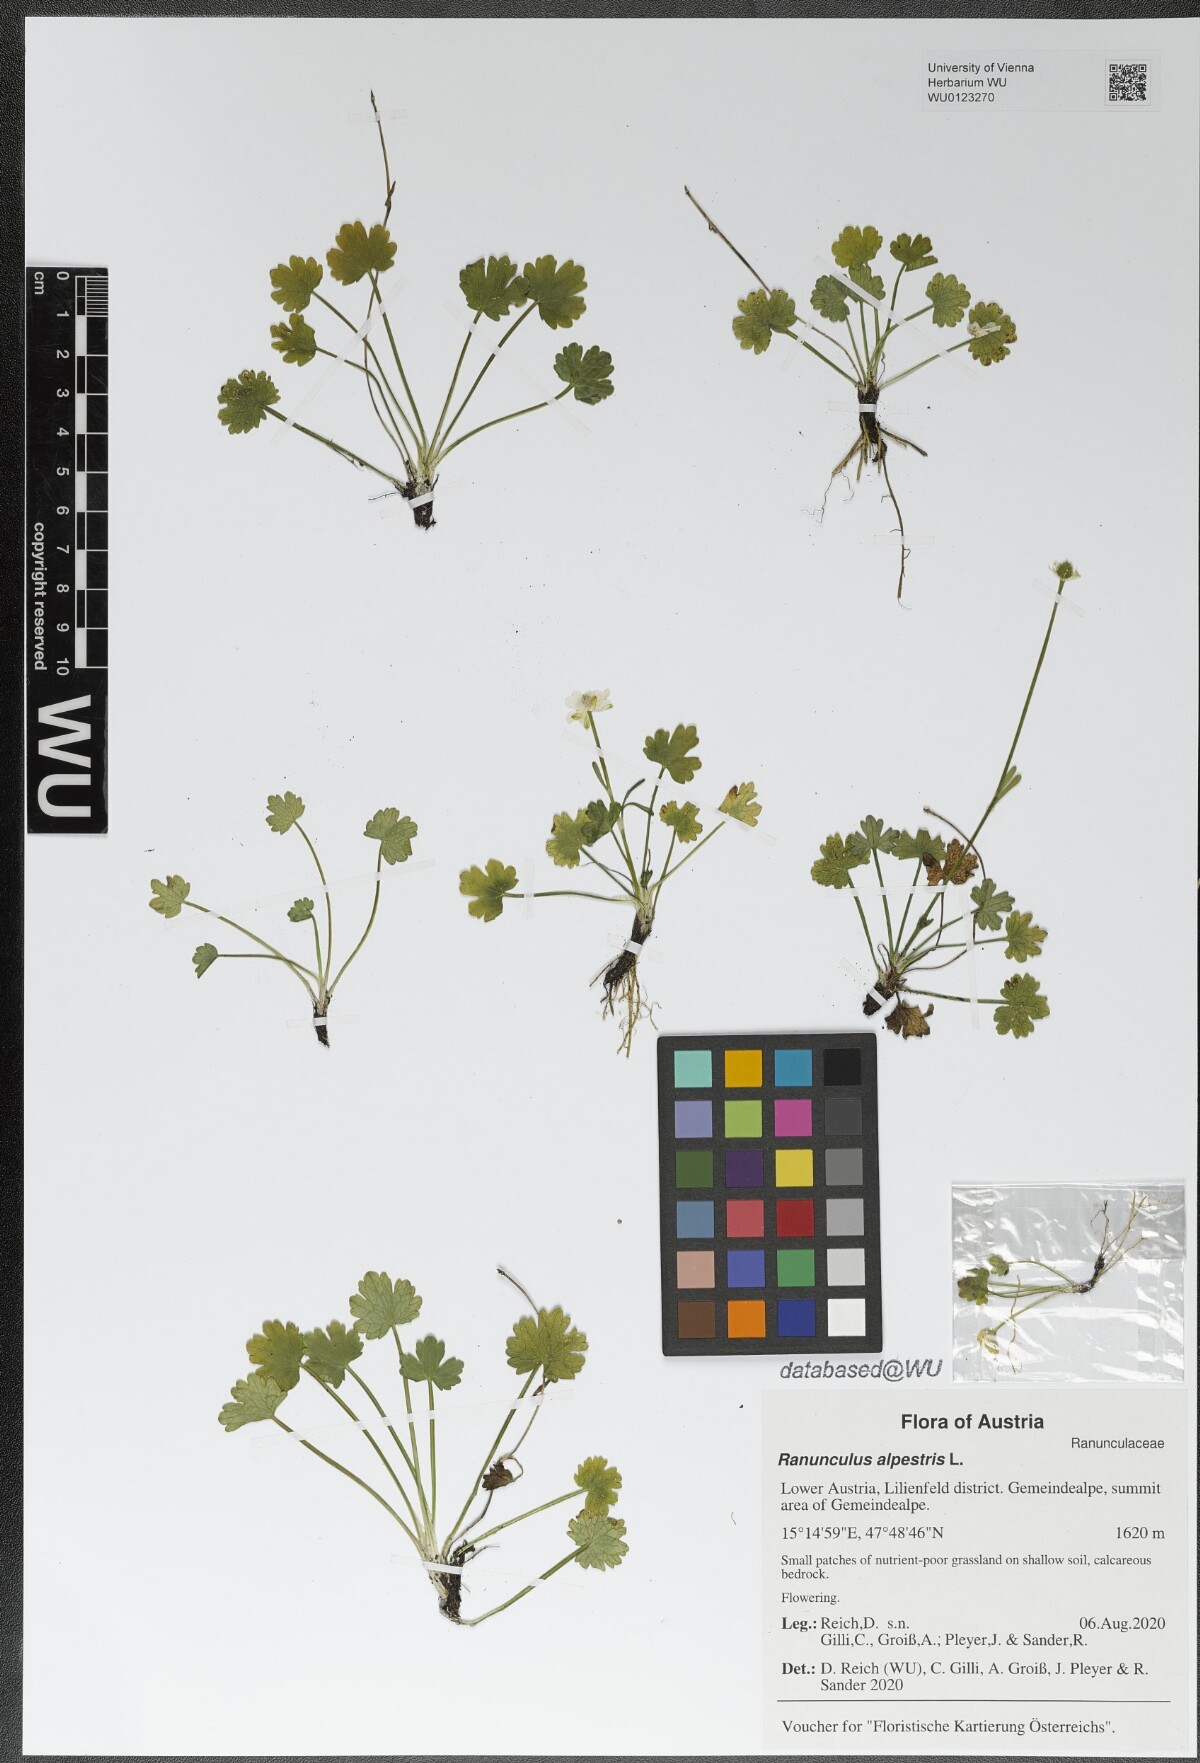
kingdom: Plantae
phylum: Tracheophyta
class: Magnoliopsida
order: Ranunculales
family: Ranunculaceae
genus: Ranunculus
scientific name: Ranunculus alpestris
